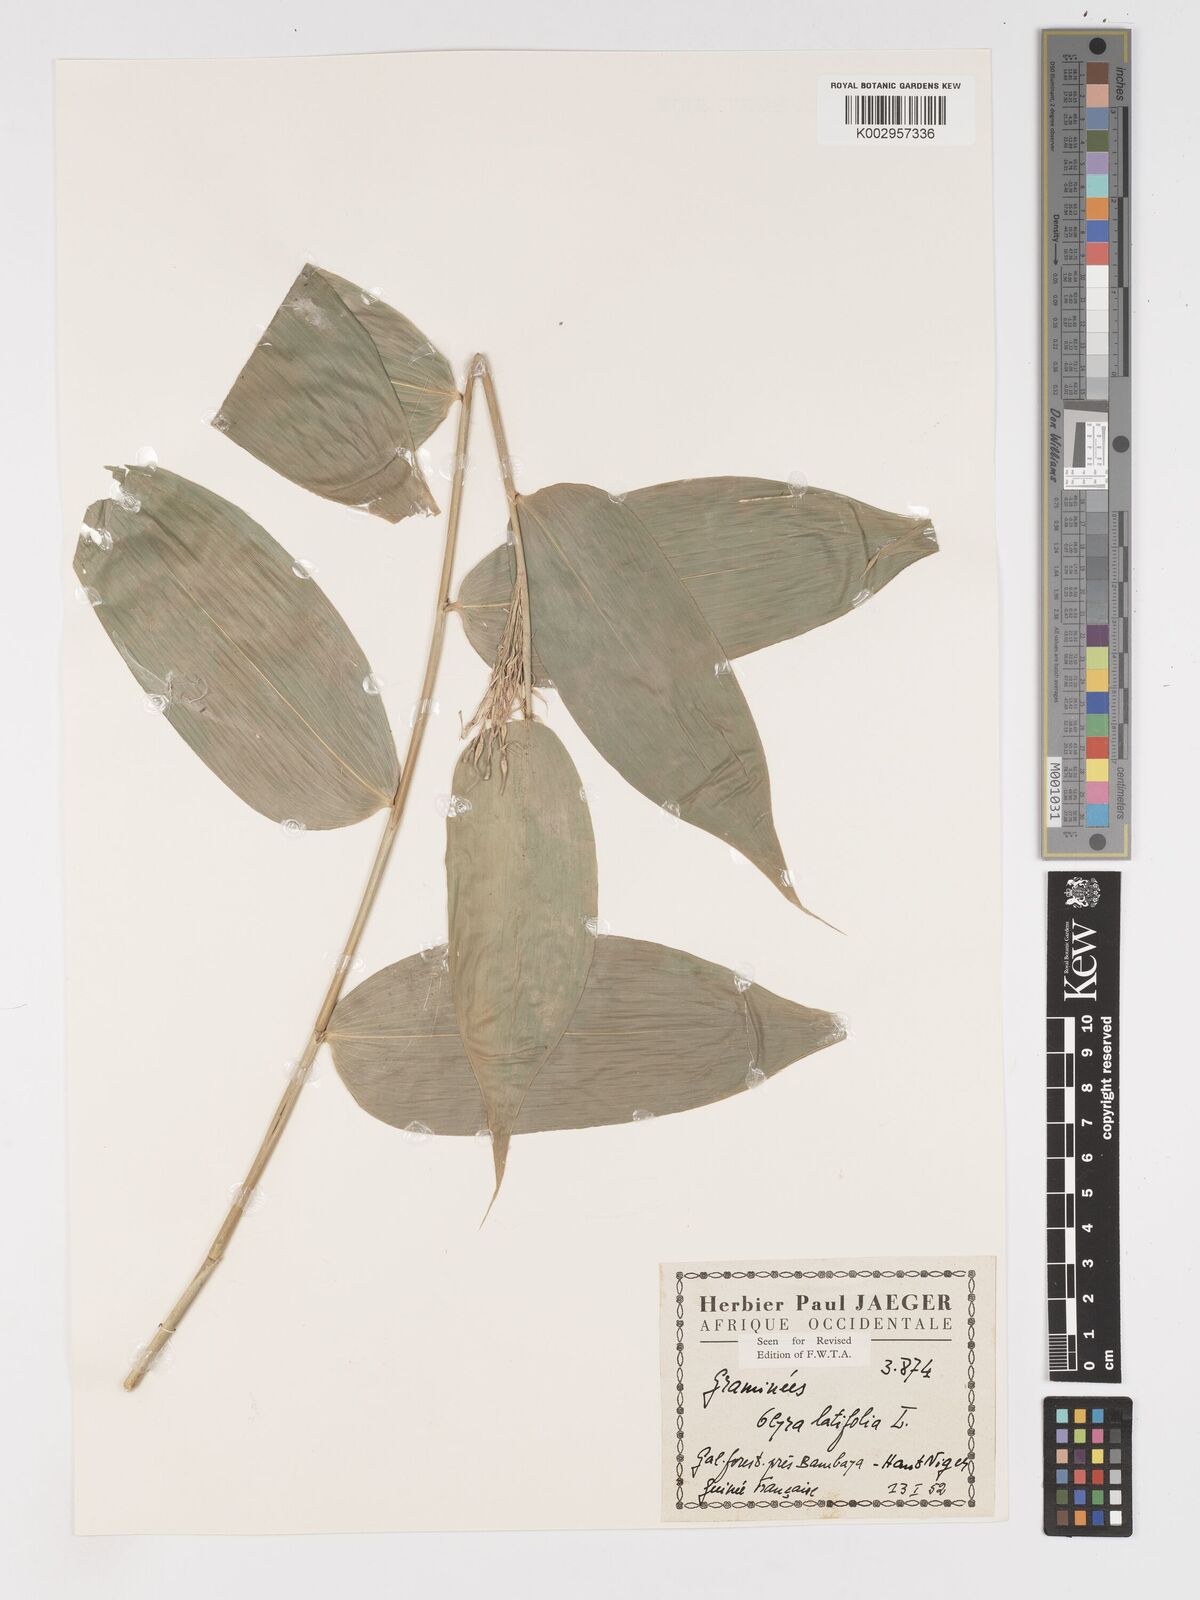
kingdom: Plantae
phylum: Tracheophyta
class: Liliopsida
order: Poales
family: Poaceae
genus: Olyra
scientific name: Olyra latifolia
